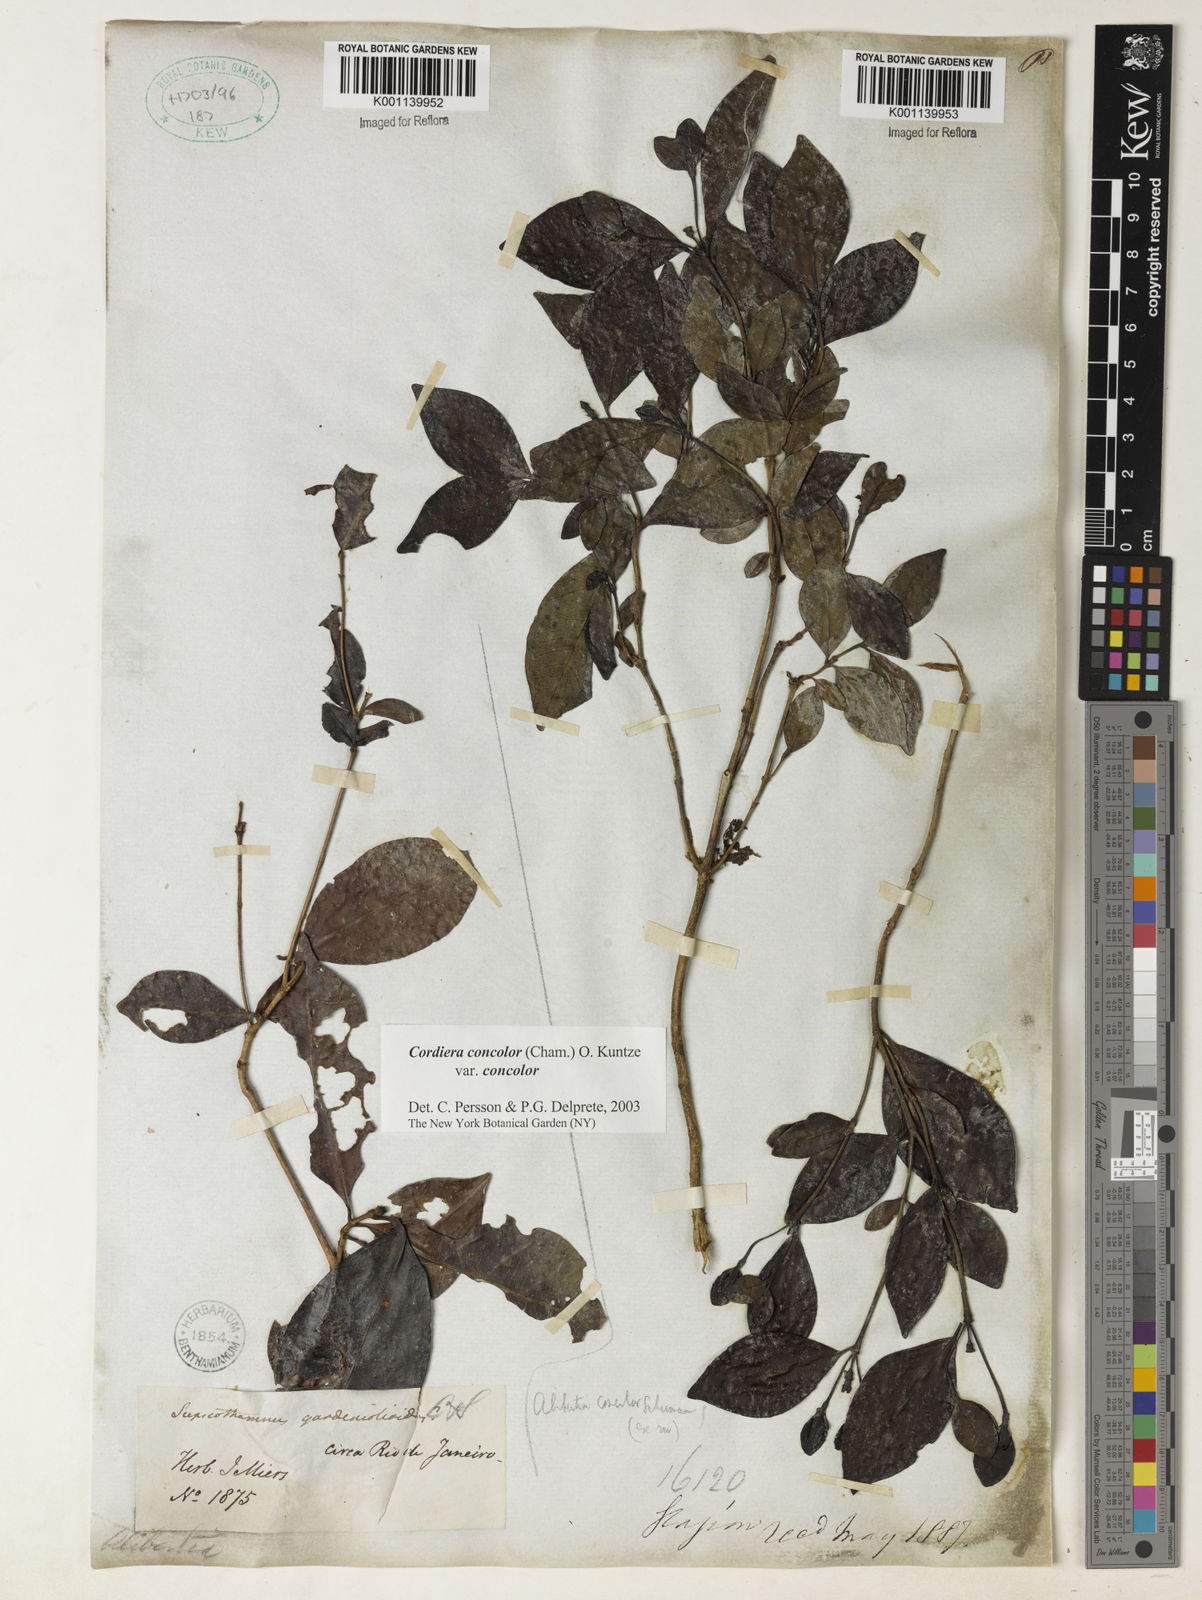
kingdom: Plantae
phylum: Tracheophyta
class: Magnoliopsida
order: Gentianales
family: Rubiaceae
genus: Cordiera
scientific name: Cordiera concolor
